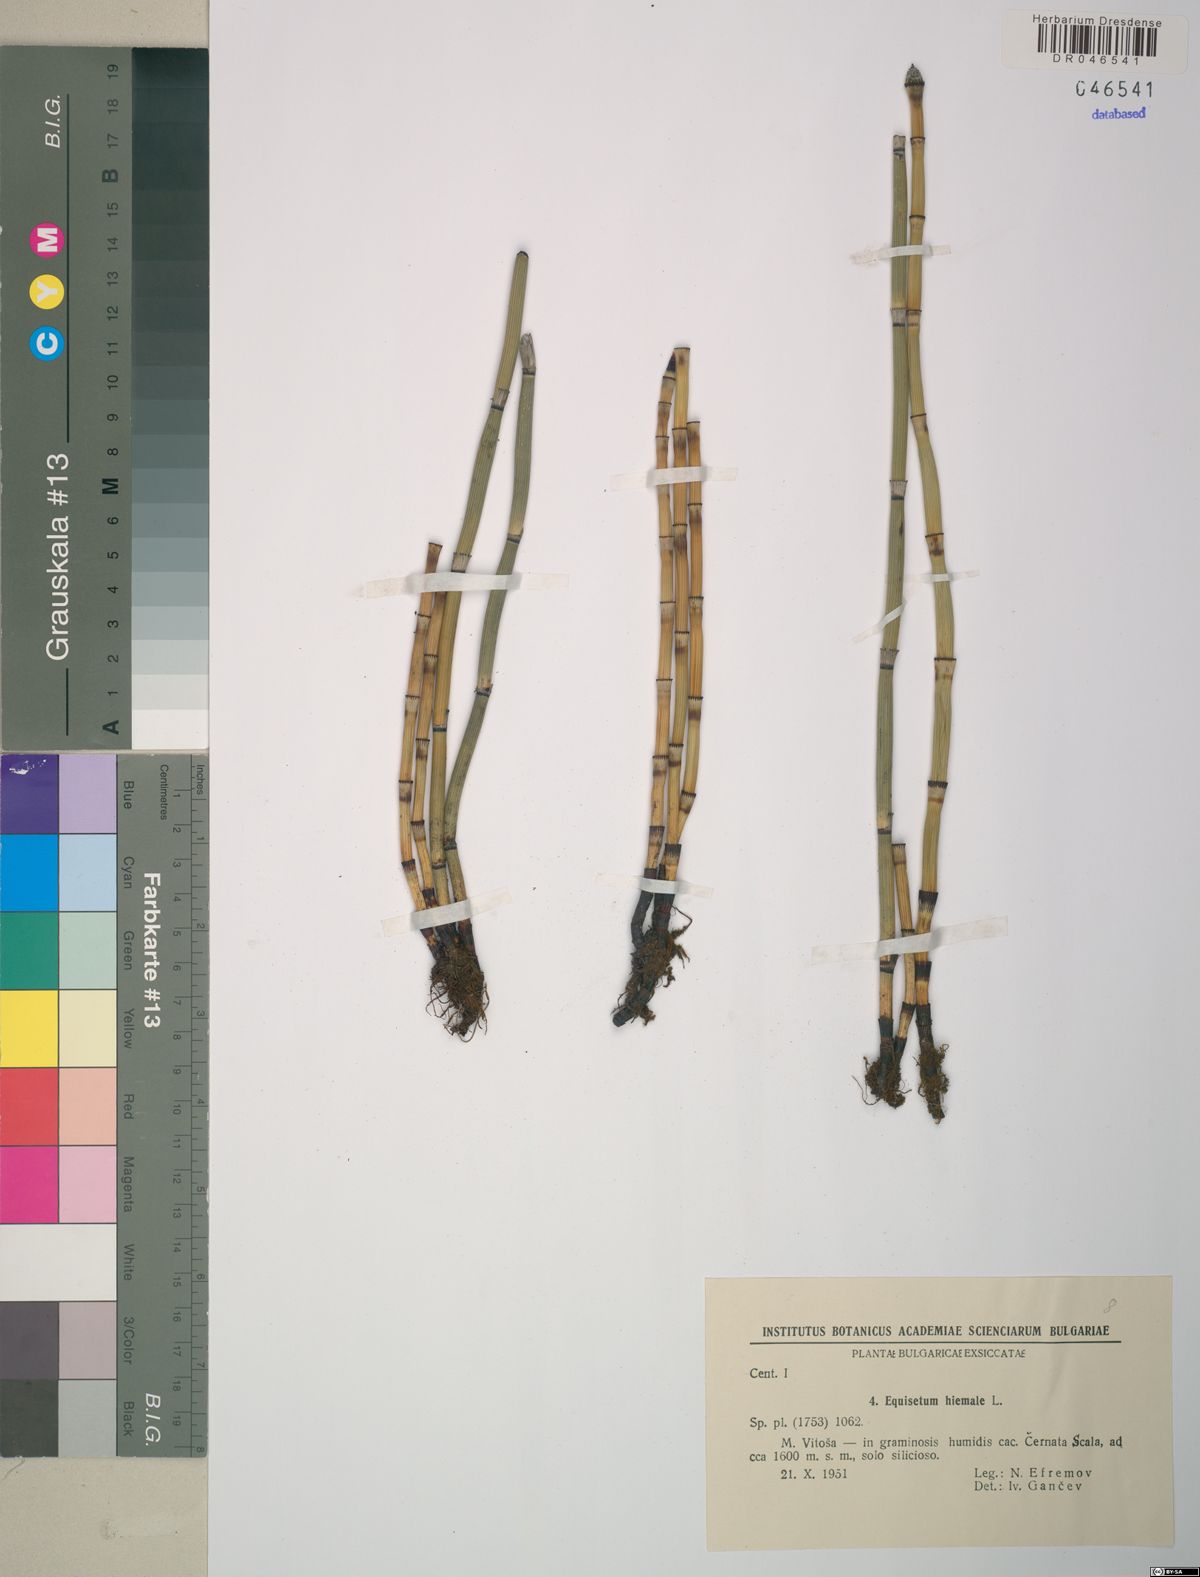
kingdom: Plantae
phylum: Tracheophyta
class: Polypodiopsida
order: Equisetales
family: Equisetaceae
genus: Equisetum
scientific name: Equisetum hyemale
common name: Rough horsetail
